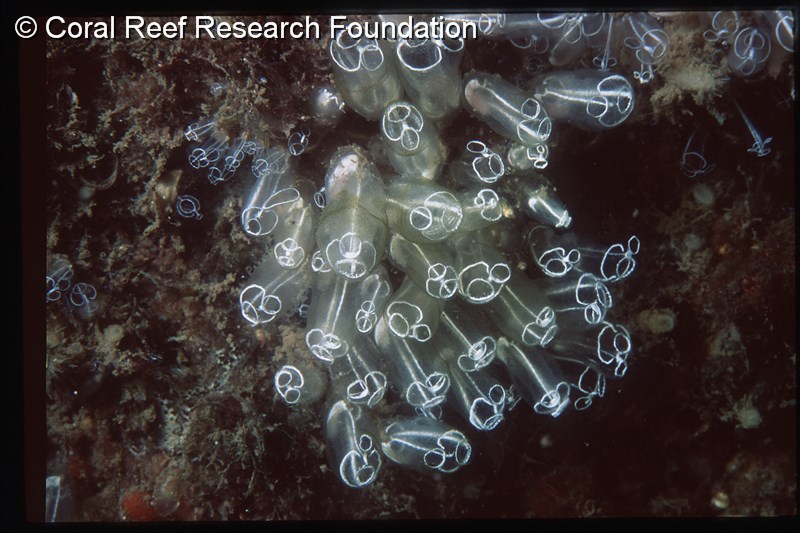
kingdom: Animalia
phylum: Chordata
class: Ascidiacea
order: Aplousobranchia
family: Clavelinidae
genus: Clavelina
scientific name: Clavelina lepadiformis
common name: Light bulb tunicate
